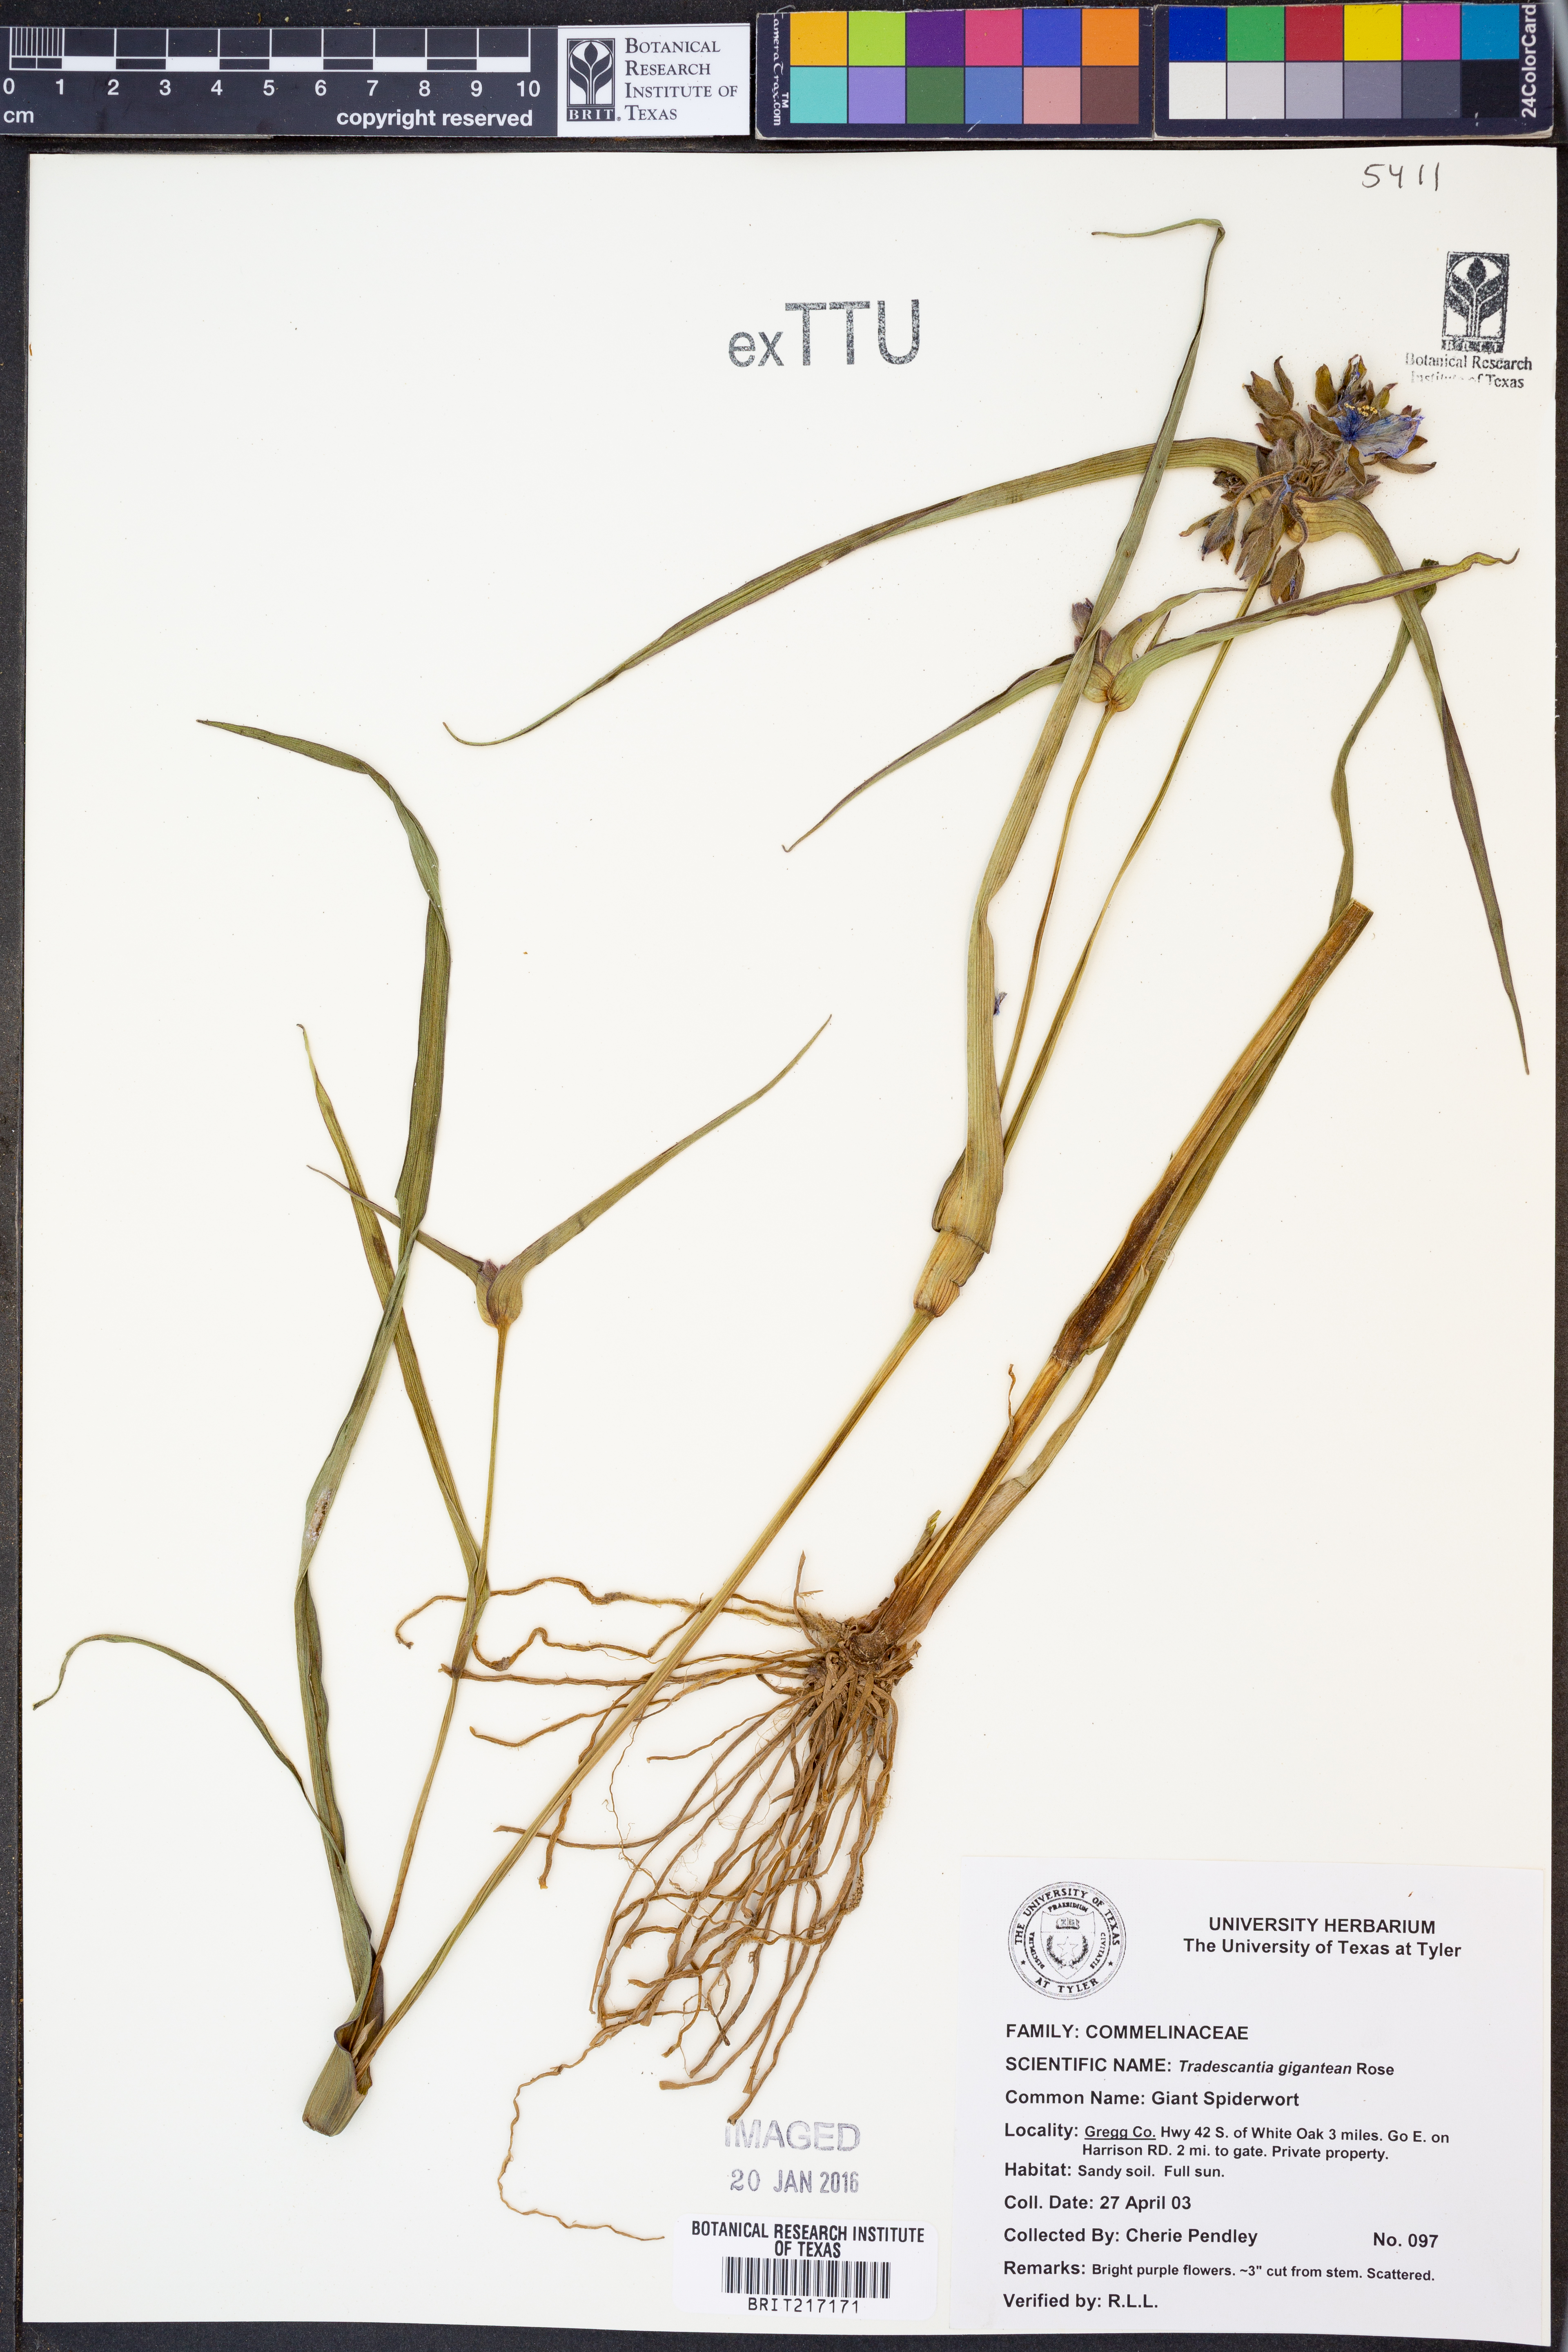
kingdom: Plantae
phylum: Tracheophyta
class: Liliopsida
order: Commelinales
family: Commelinaceae
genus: Tradescantia
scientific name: Tradescantia gigantea
